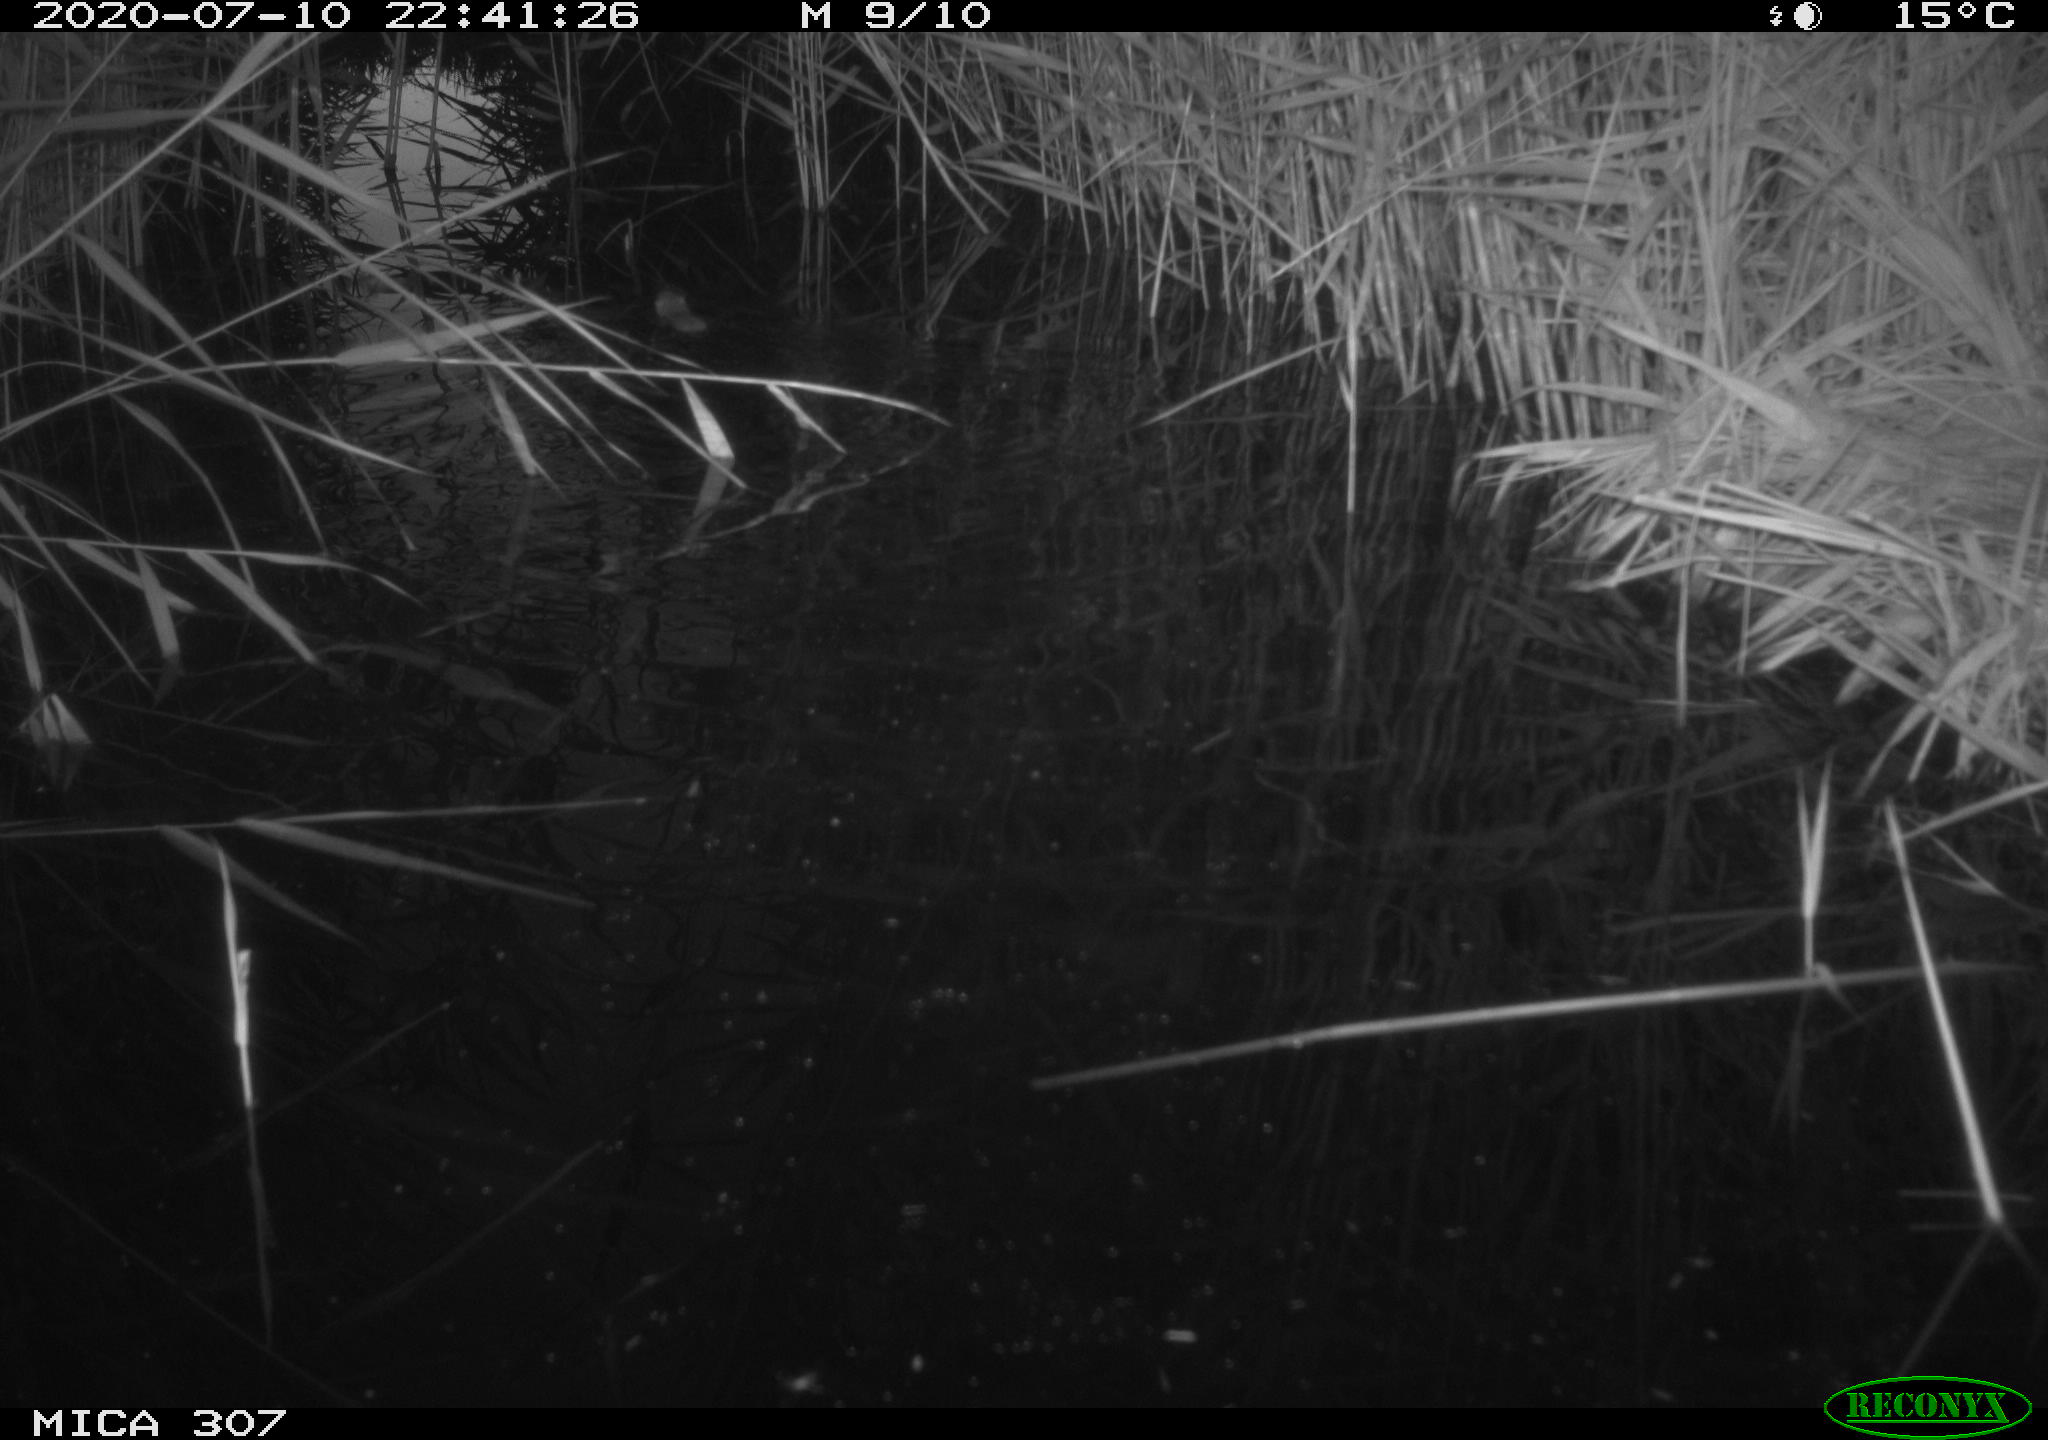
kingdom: Animalia
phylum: Chordata
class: Mammalia
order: Rodentia
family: Muridae
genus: Rattus
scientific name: Rattus norvegicus
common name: Brown rat
